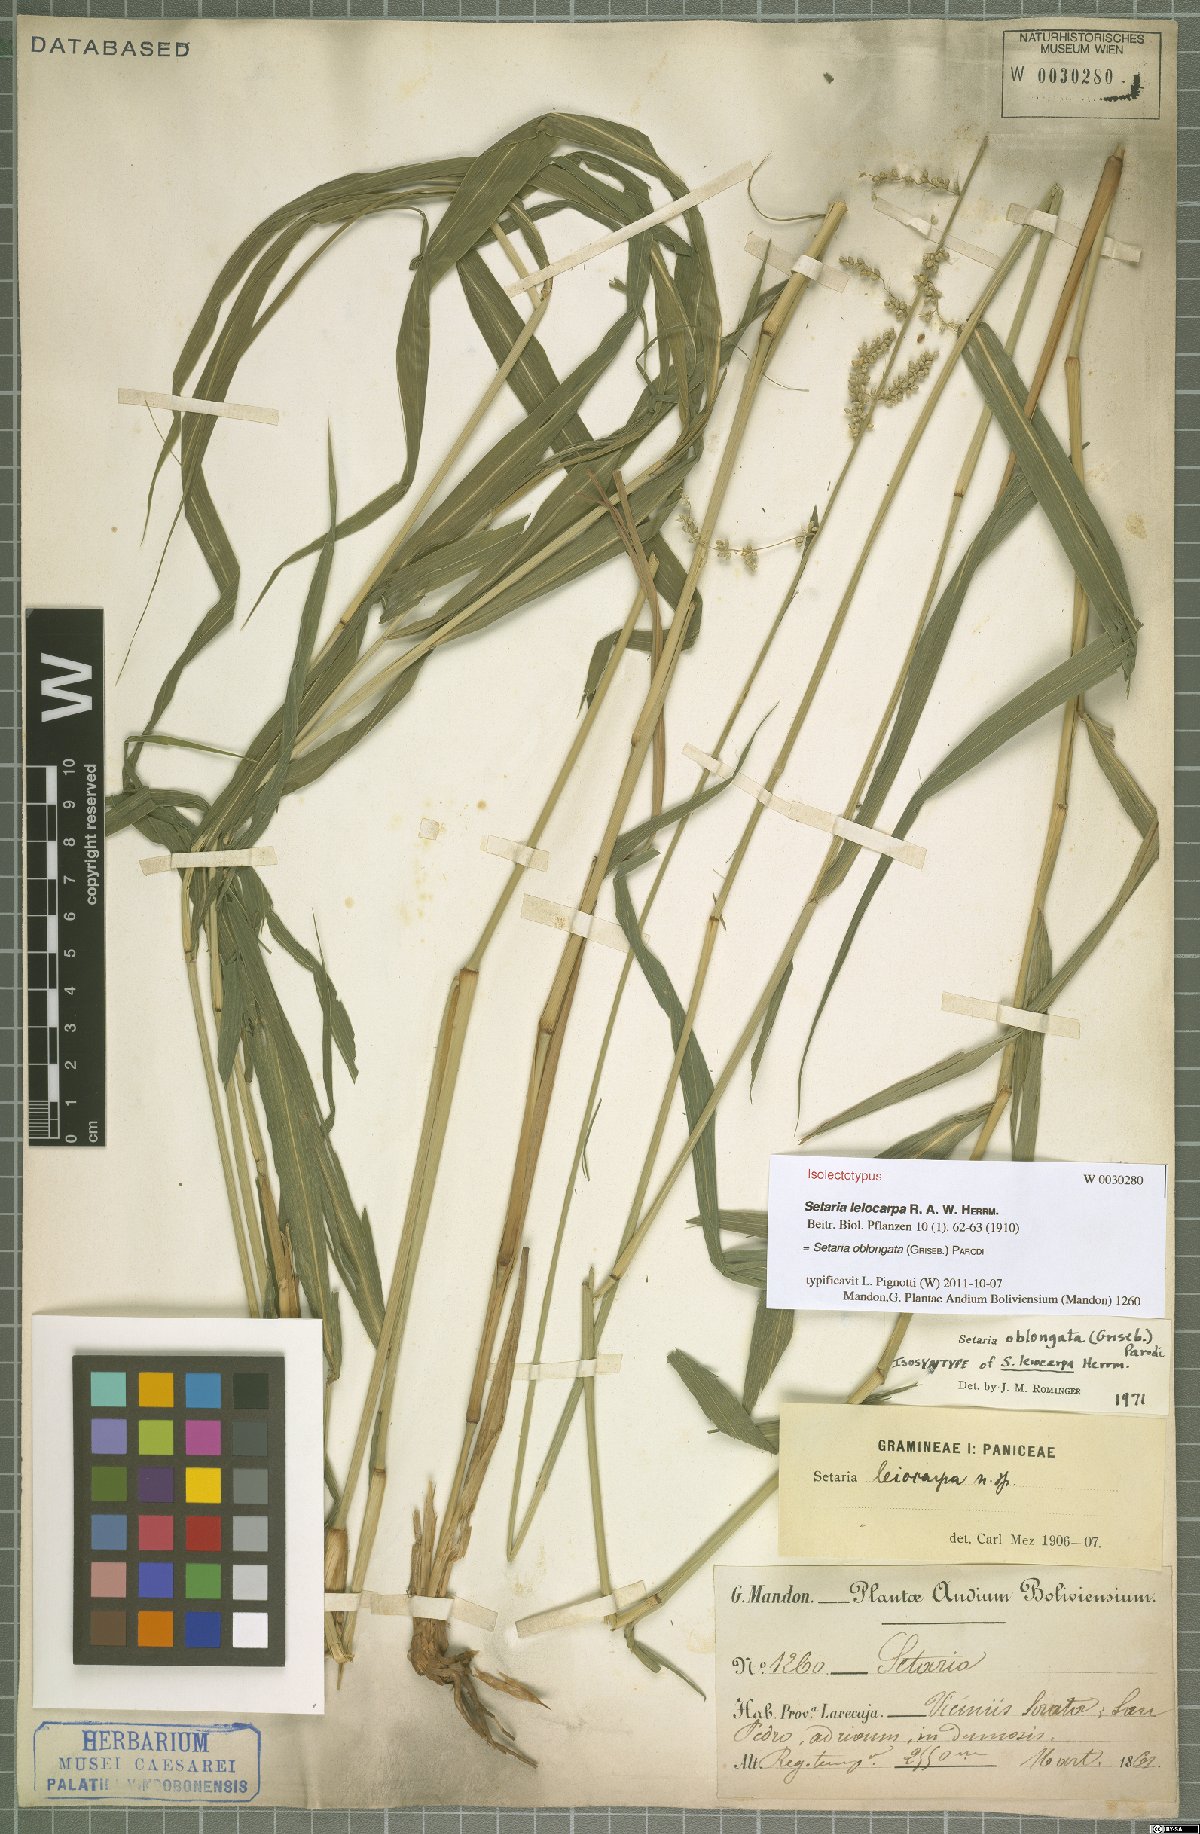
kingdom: Plantae
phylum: Tracheophyta
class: Liliopsida
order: Poales
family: Poaceae
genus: Setaria
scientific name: Setaria oblongata
